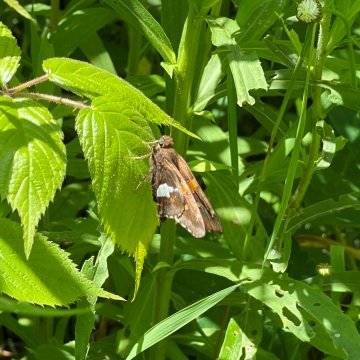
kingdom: Animalia
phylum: Arthropoda
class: Insecta
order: Lepidoptera
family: Hesperiidae
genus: Epargyreus
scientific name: Epargyreus clarus
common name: Silver-spotted Skipper
